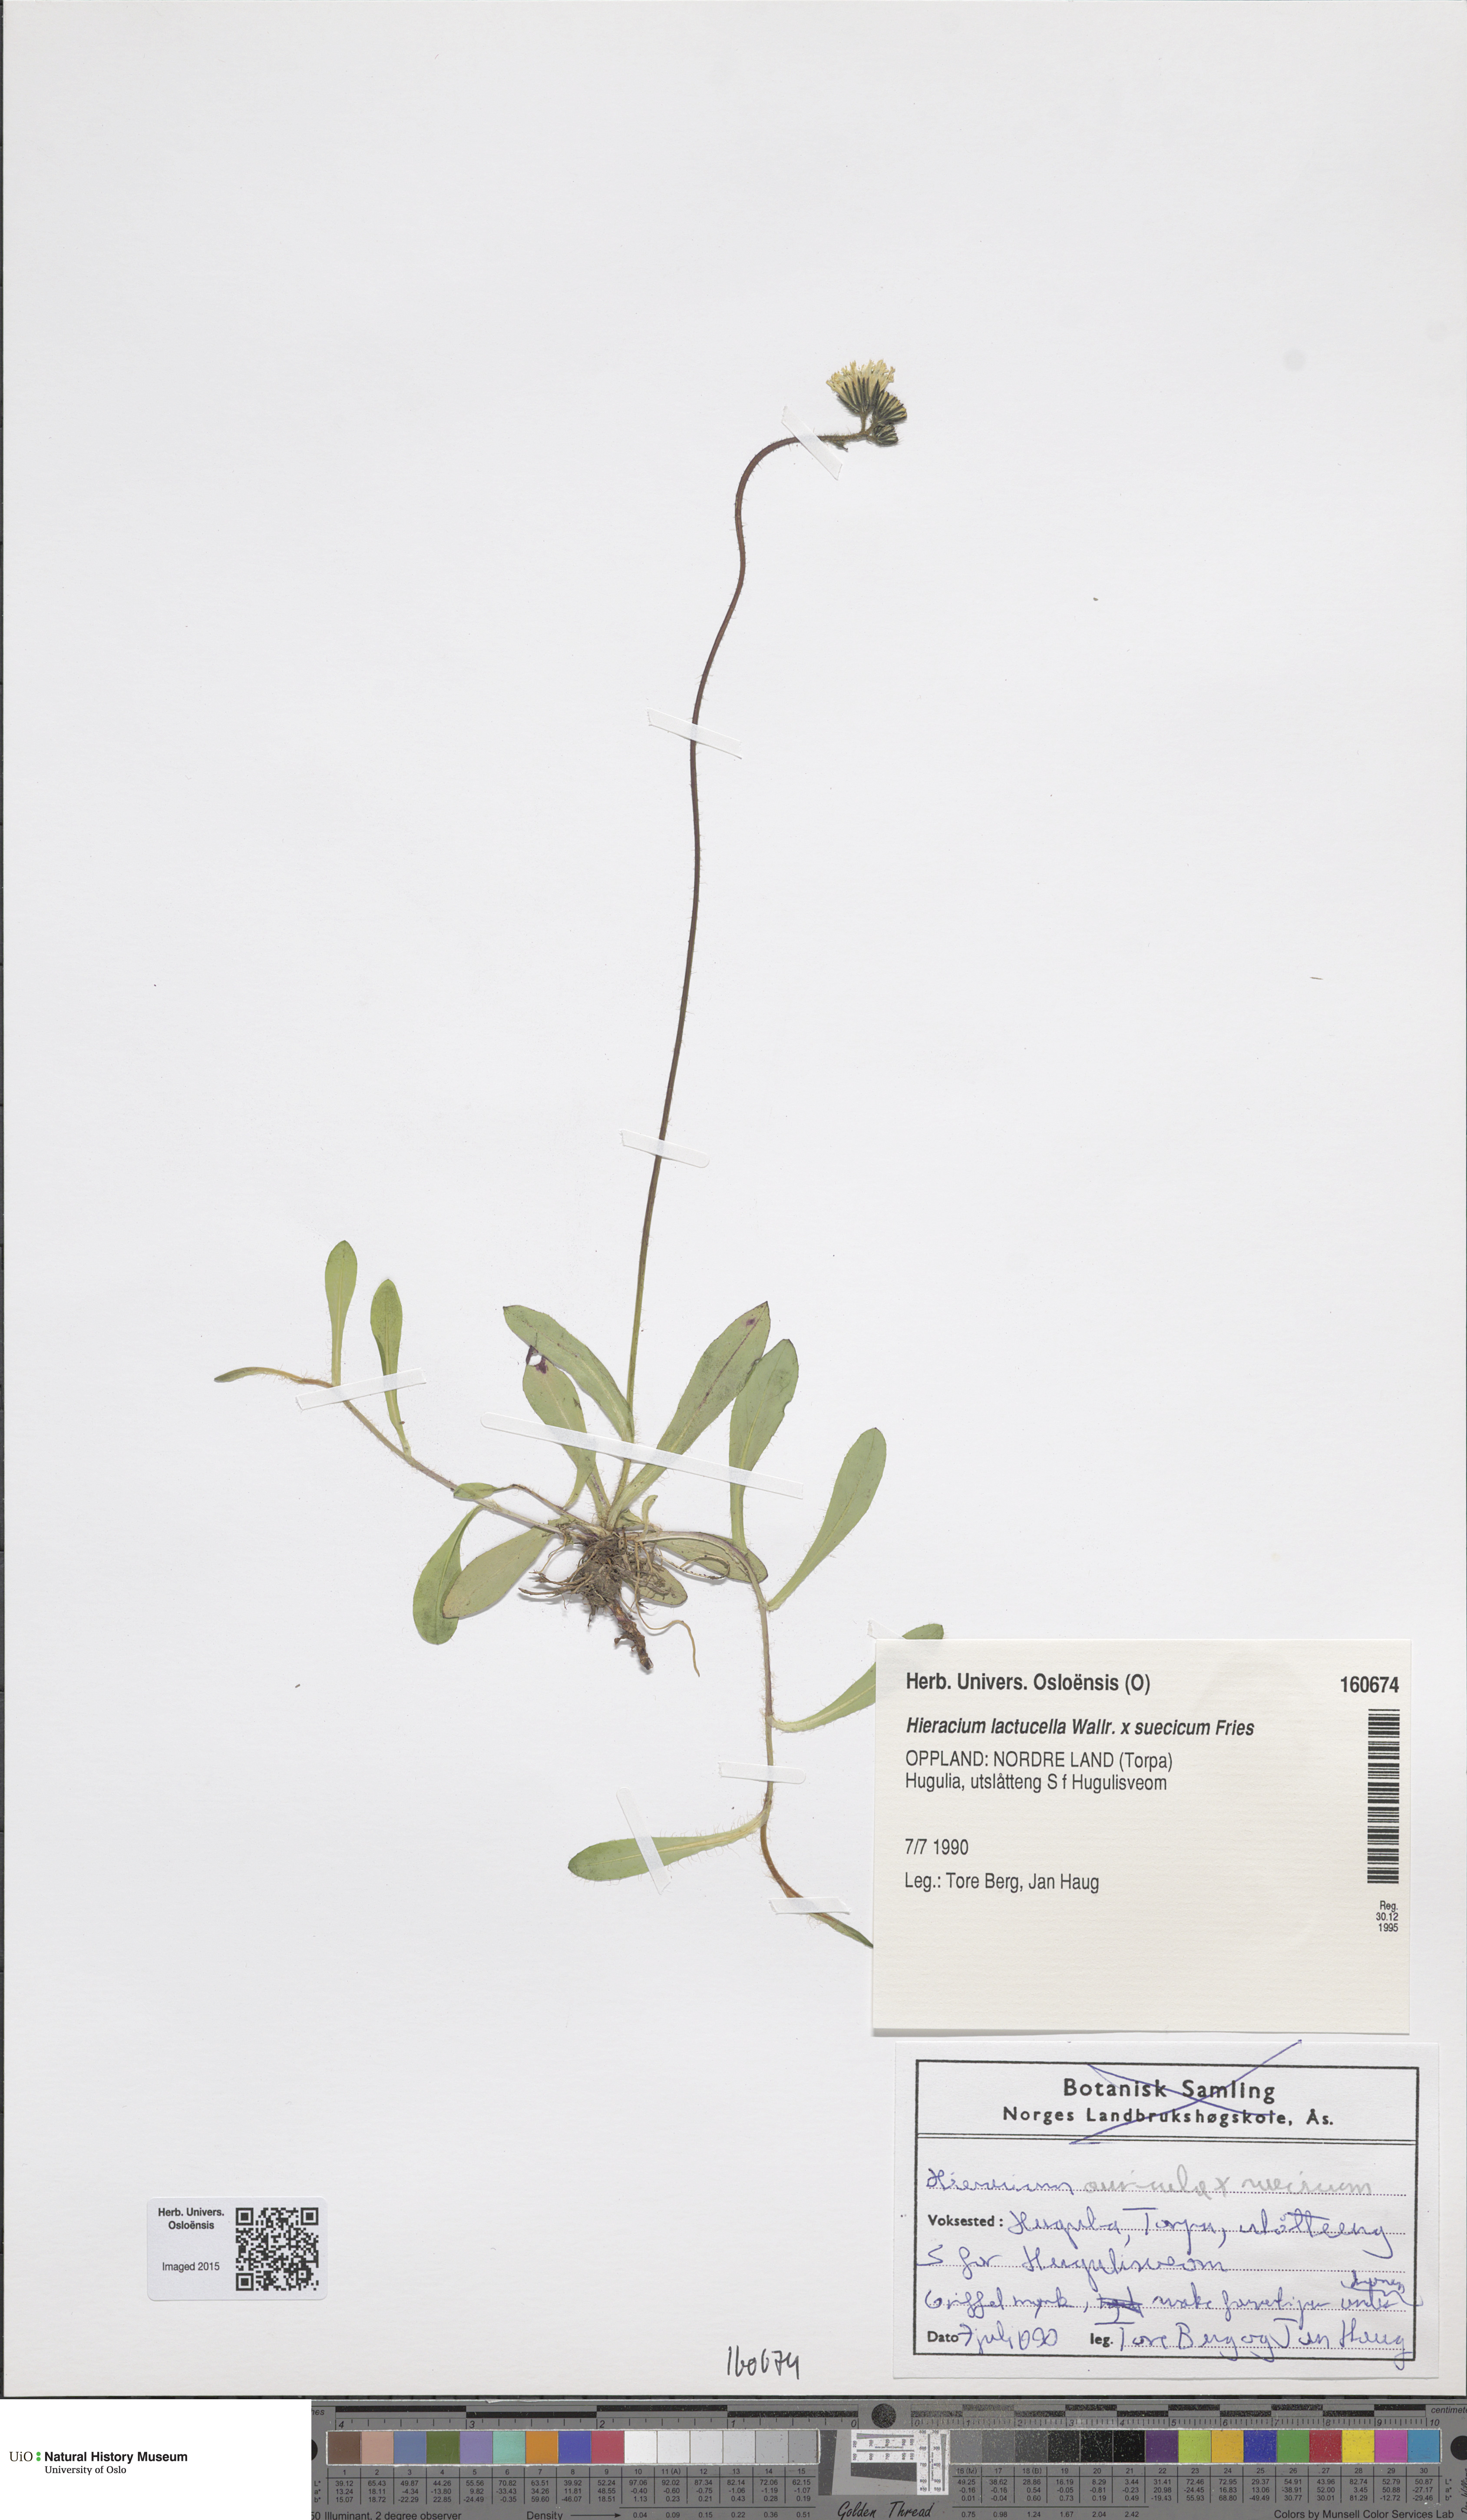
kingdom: Plantae
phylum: Tracheophyta
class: Magnoliopsida
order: Asterales
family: Asteraceae
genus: Pilosella
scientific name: Pilosella
